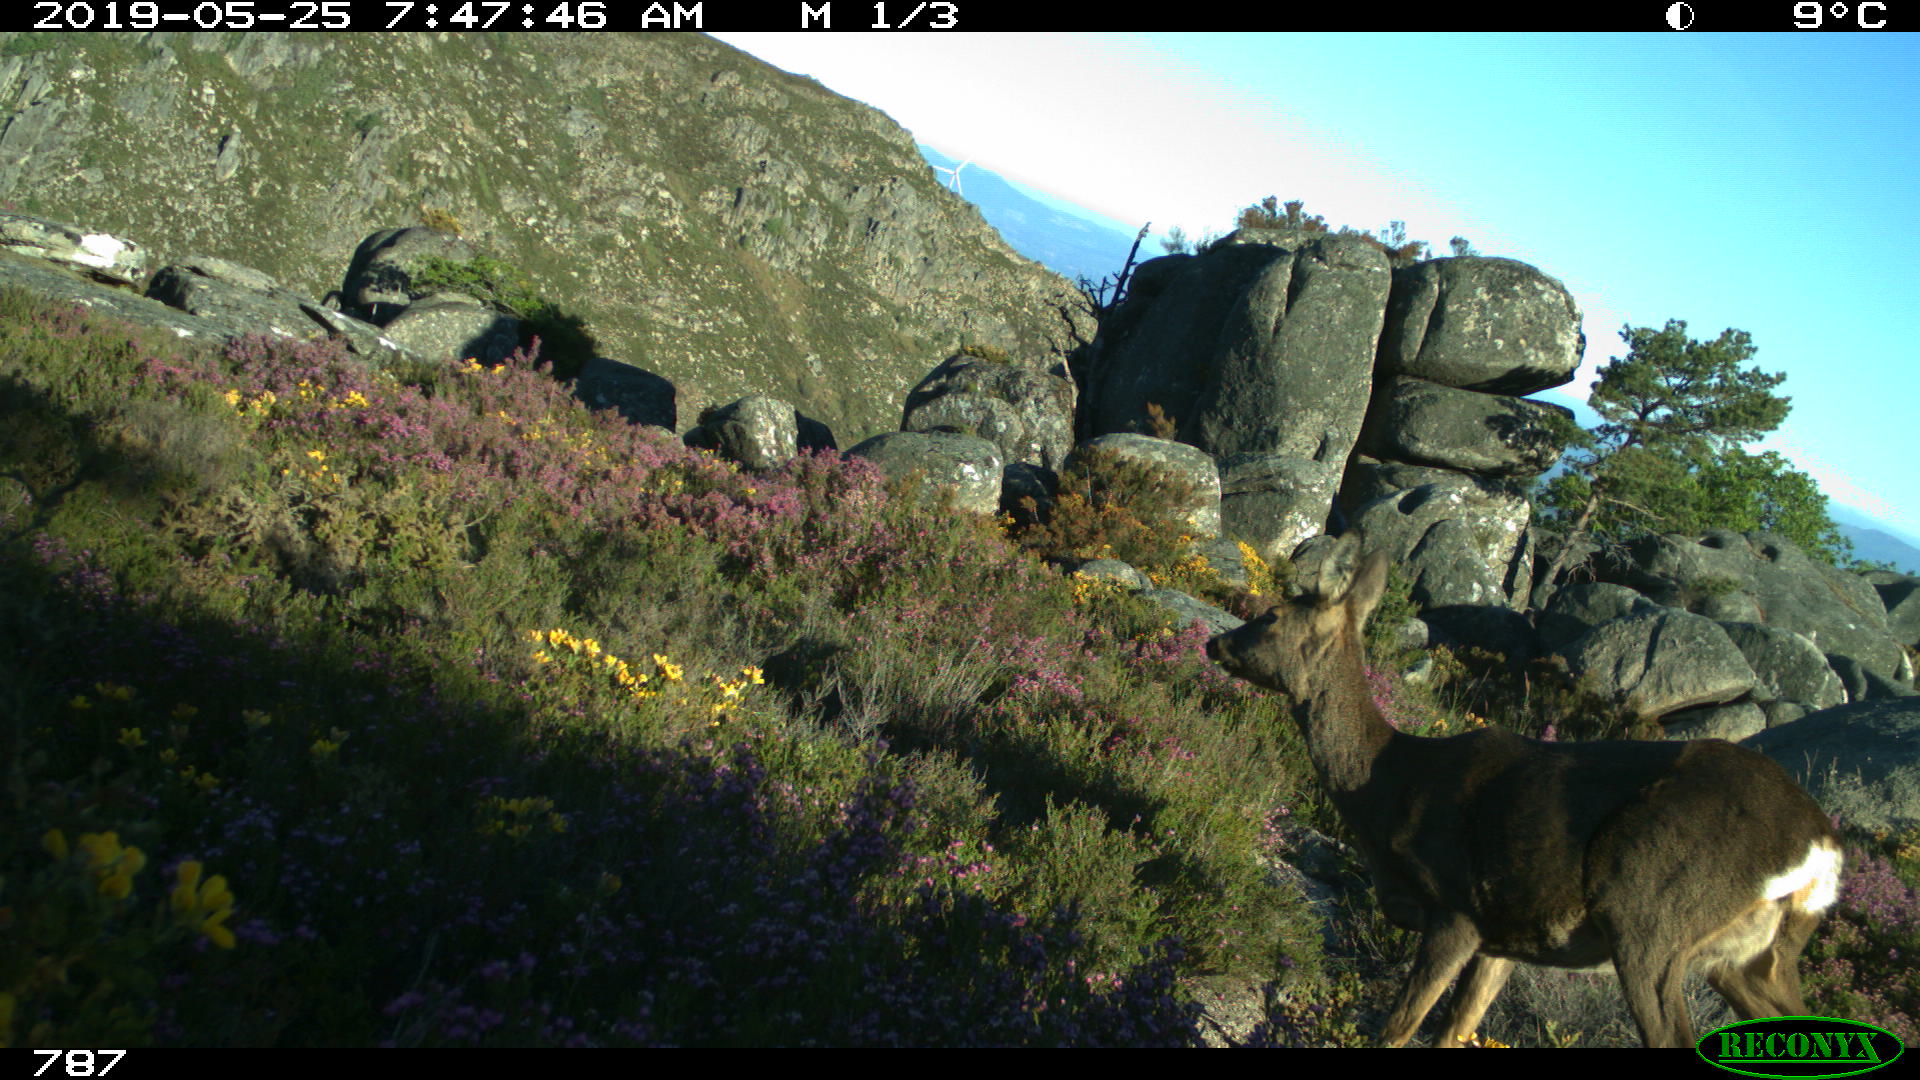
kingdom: Animalia
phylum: Chordata
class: Mammalia
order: Artiodactyla
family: Cervidae
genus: Capreolus
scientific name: Capreolus capreolus
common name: Western roe deer
